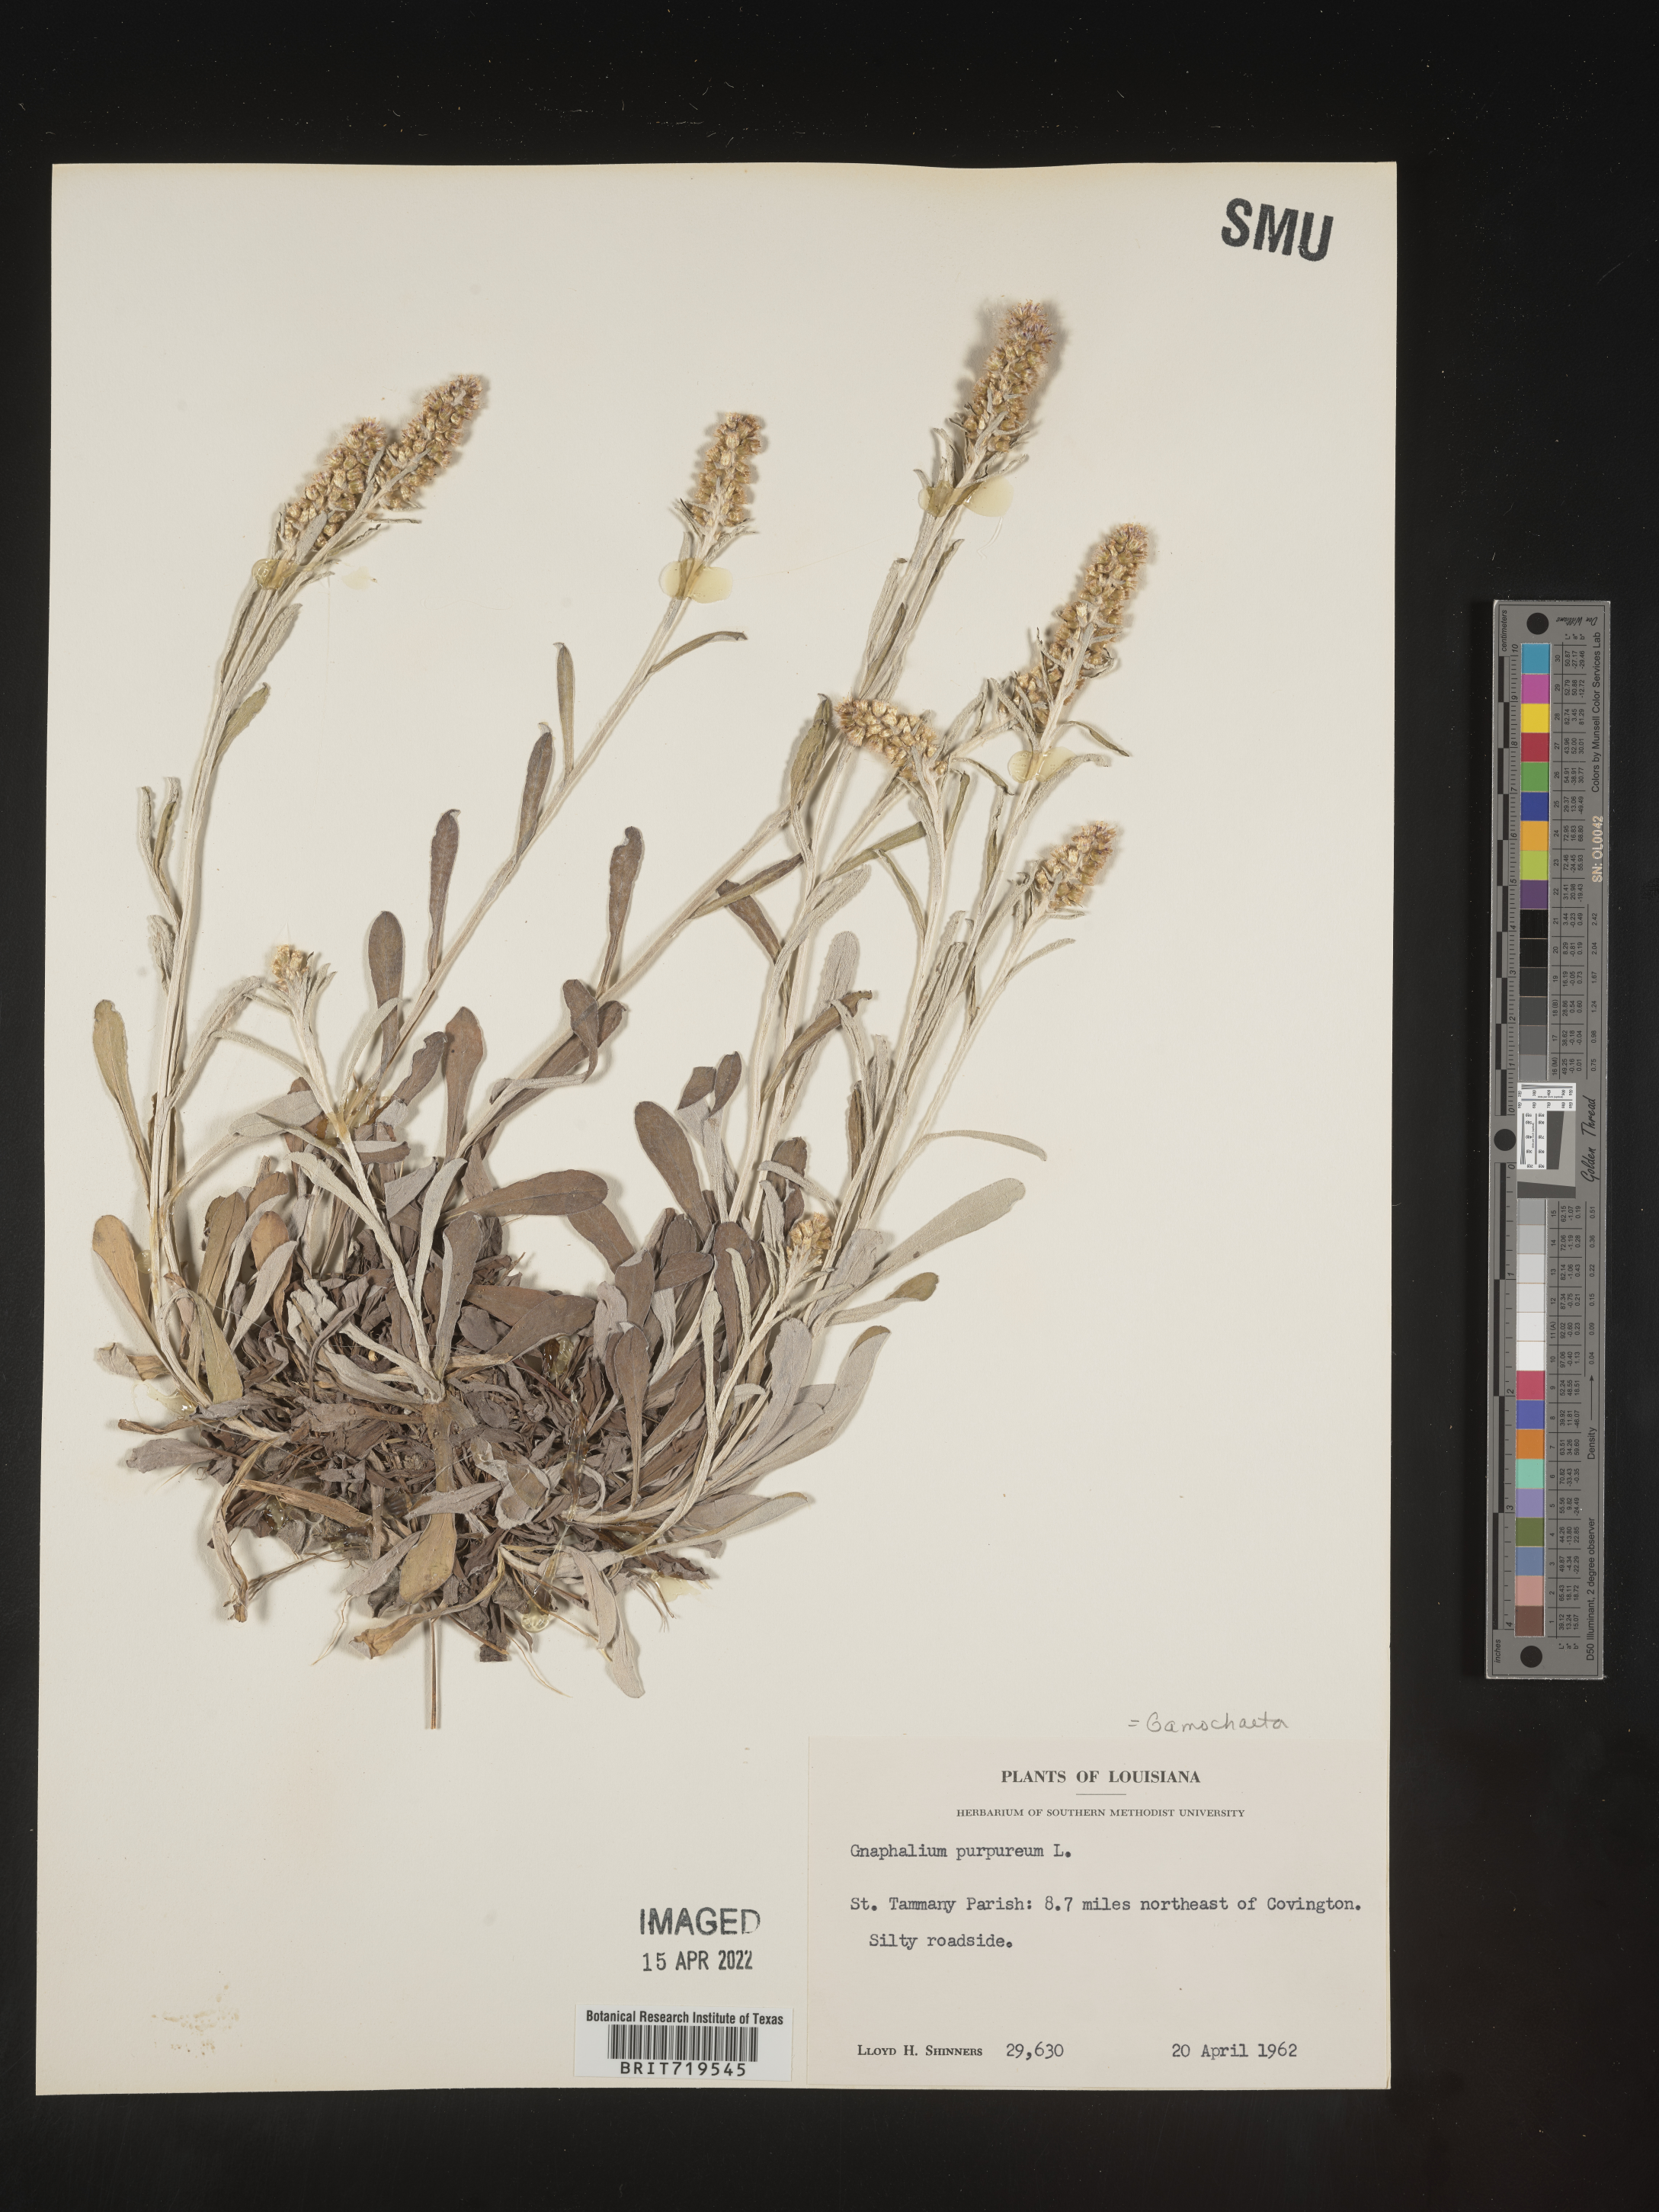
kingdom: Plantae
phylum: Tracheophyta
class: Magnoliopsida
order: Asterales
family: Asteraceae
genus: Gamochaeta
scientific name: Gamochaeta argyrinea
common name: Silvery cudweed
